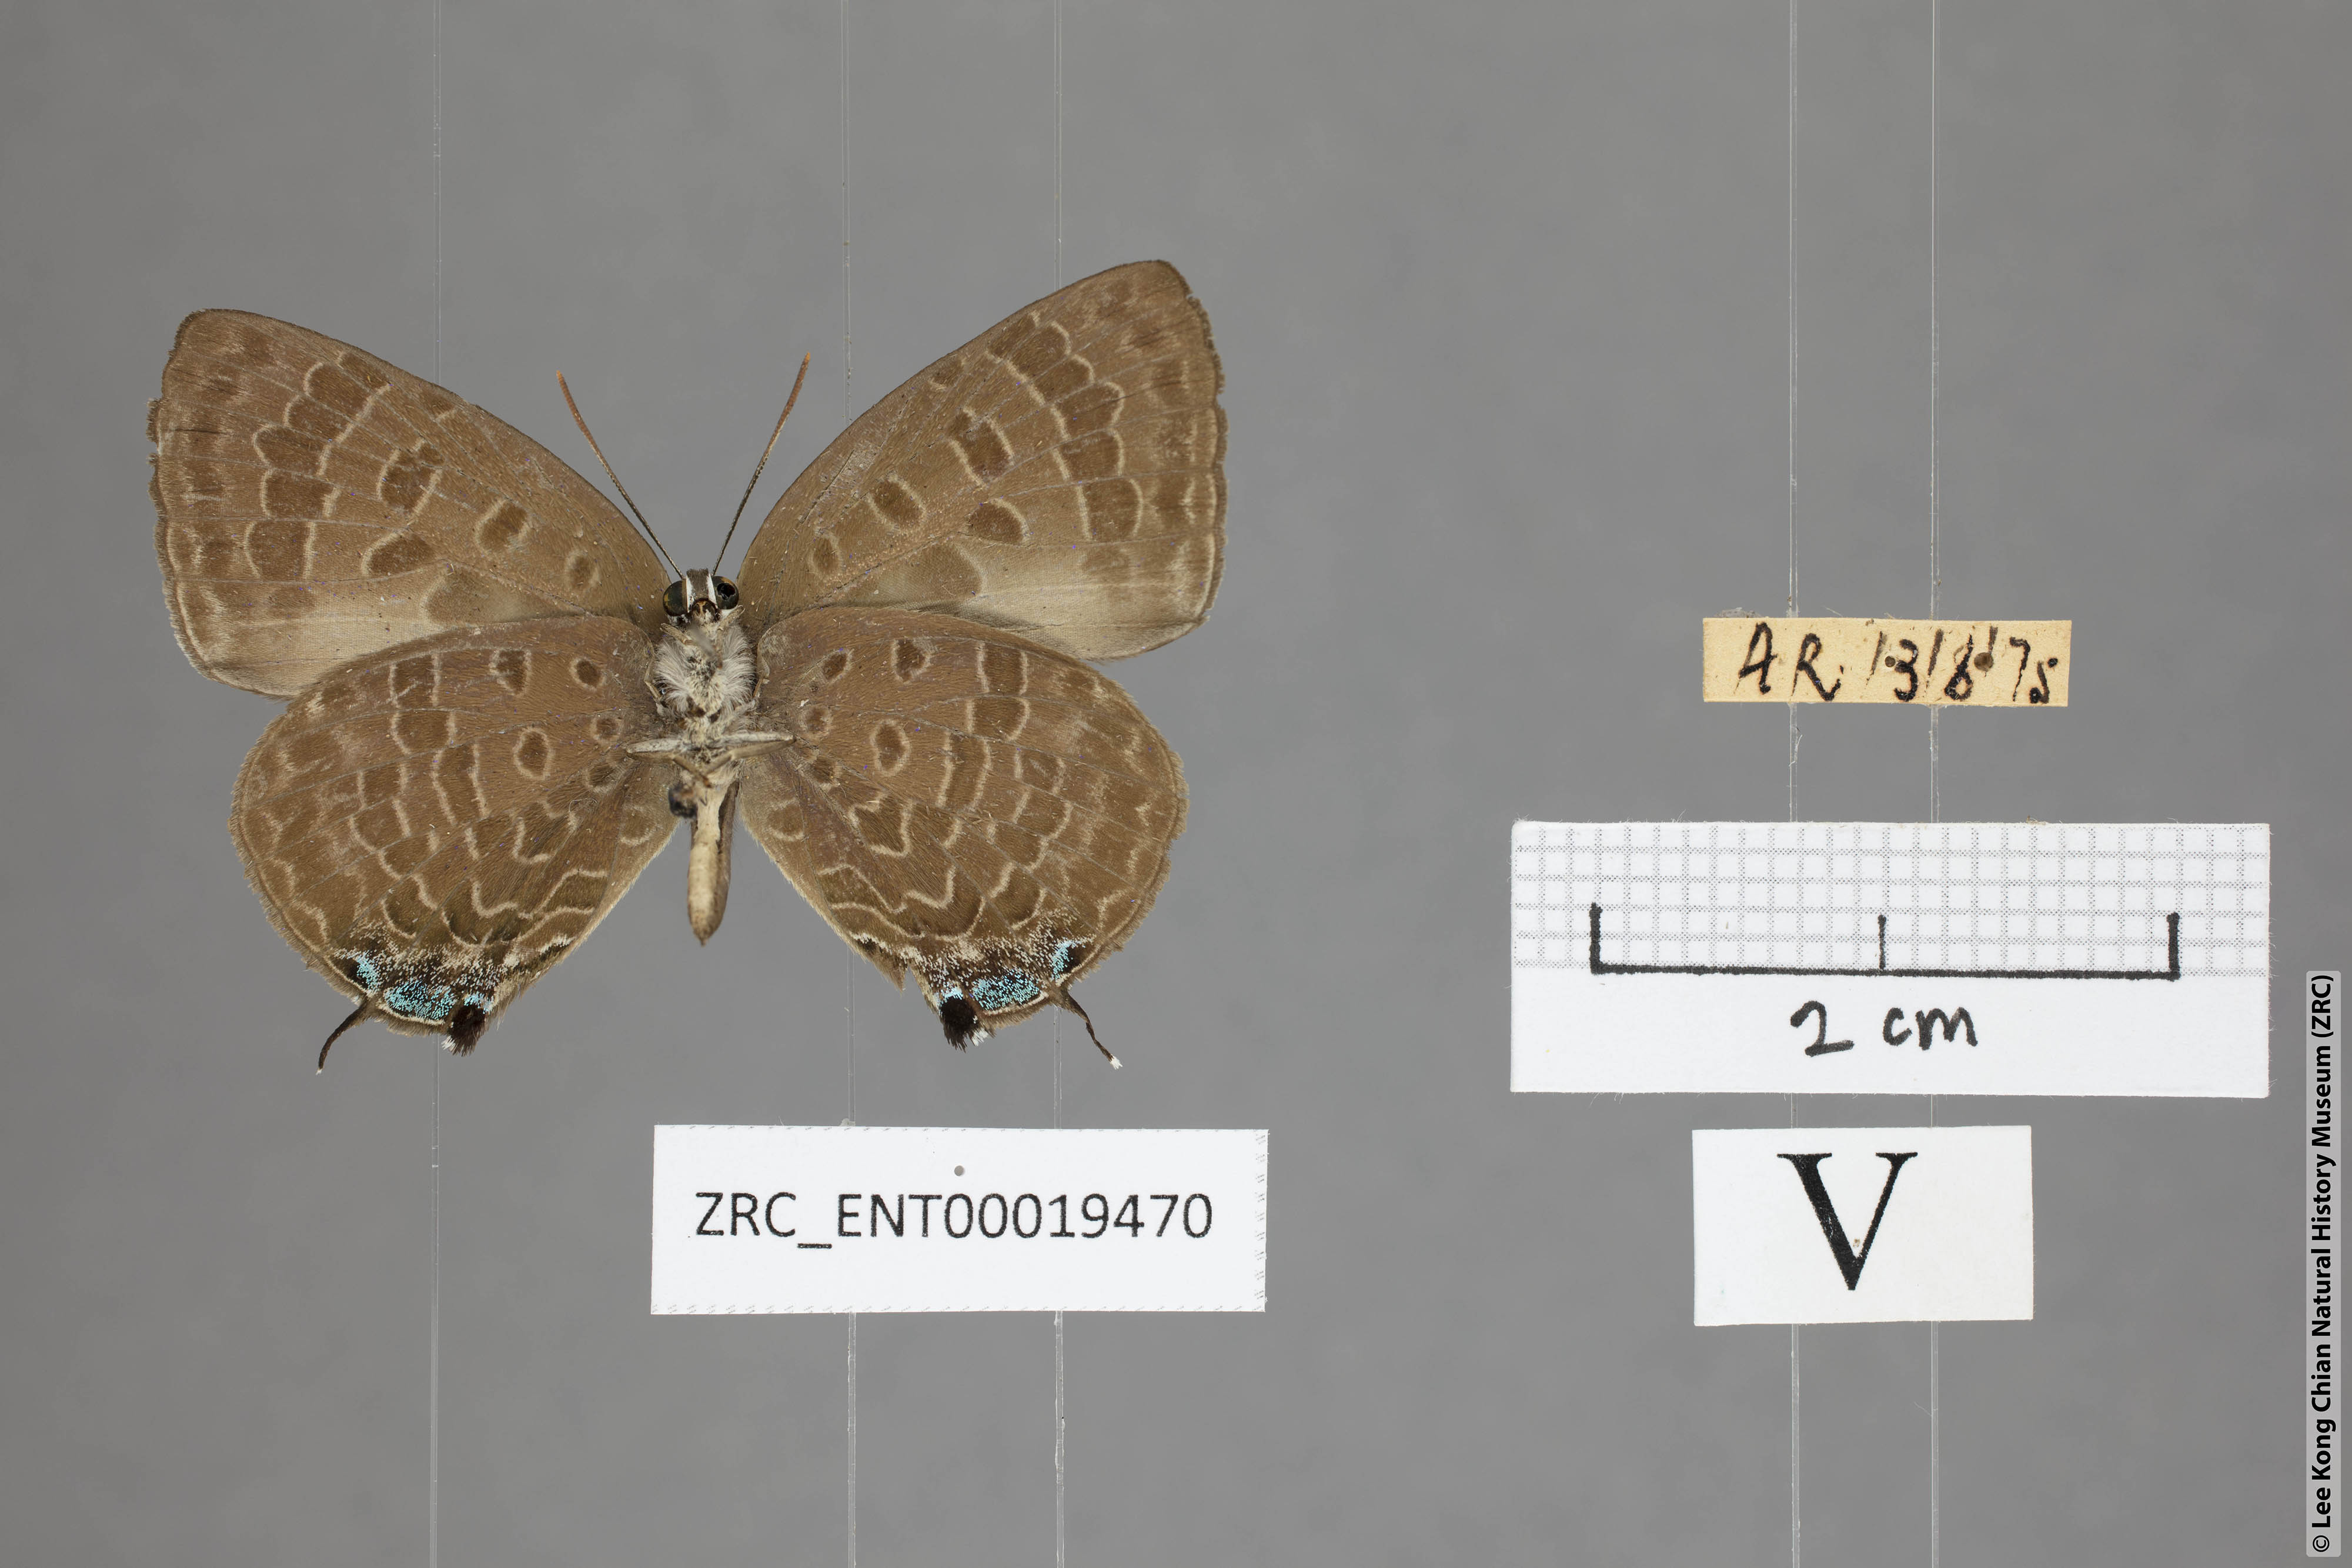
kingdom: Animalia
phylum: Arthropoda
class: Insecta
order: Lepidoptera
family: Lycaenidae
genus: Arhopala
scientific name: Arhopala azinis
